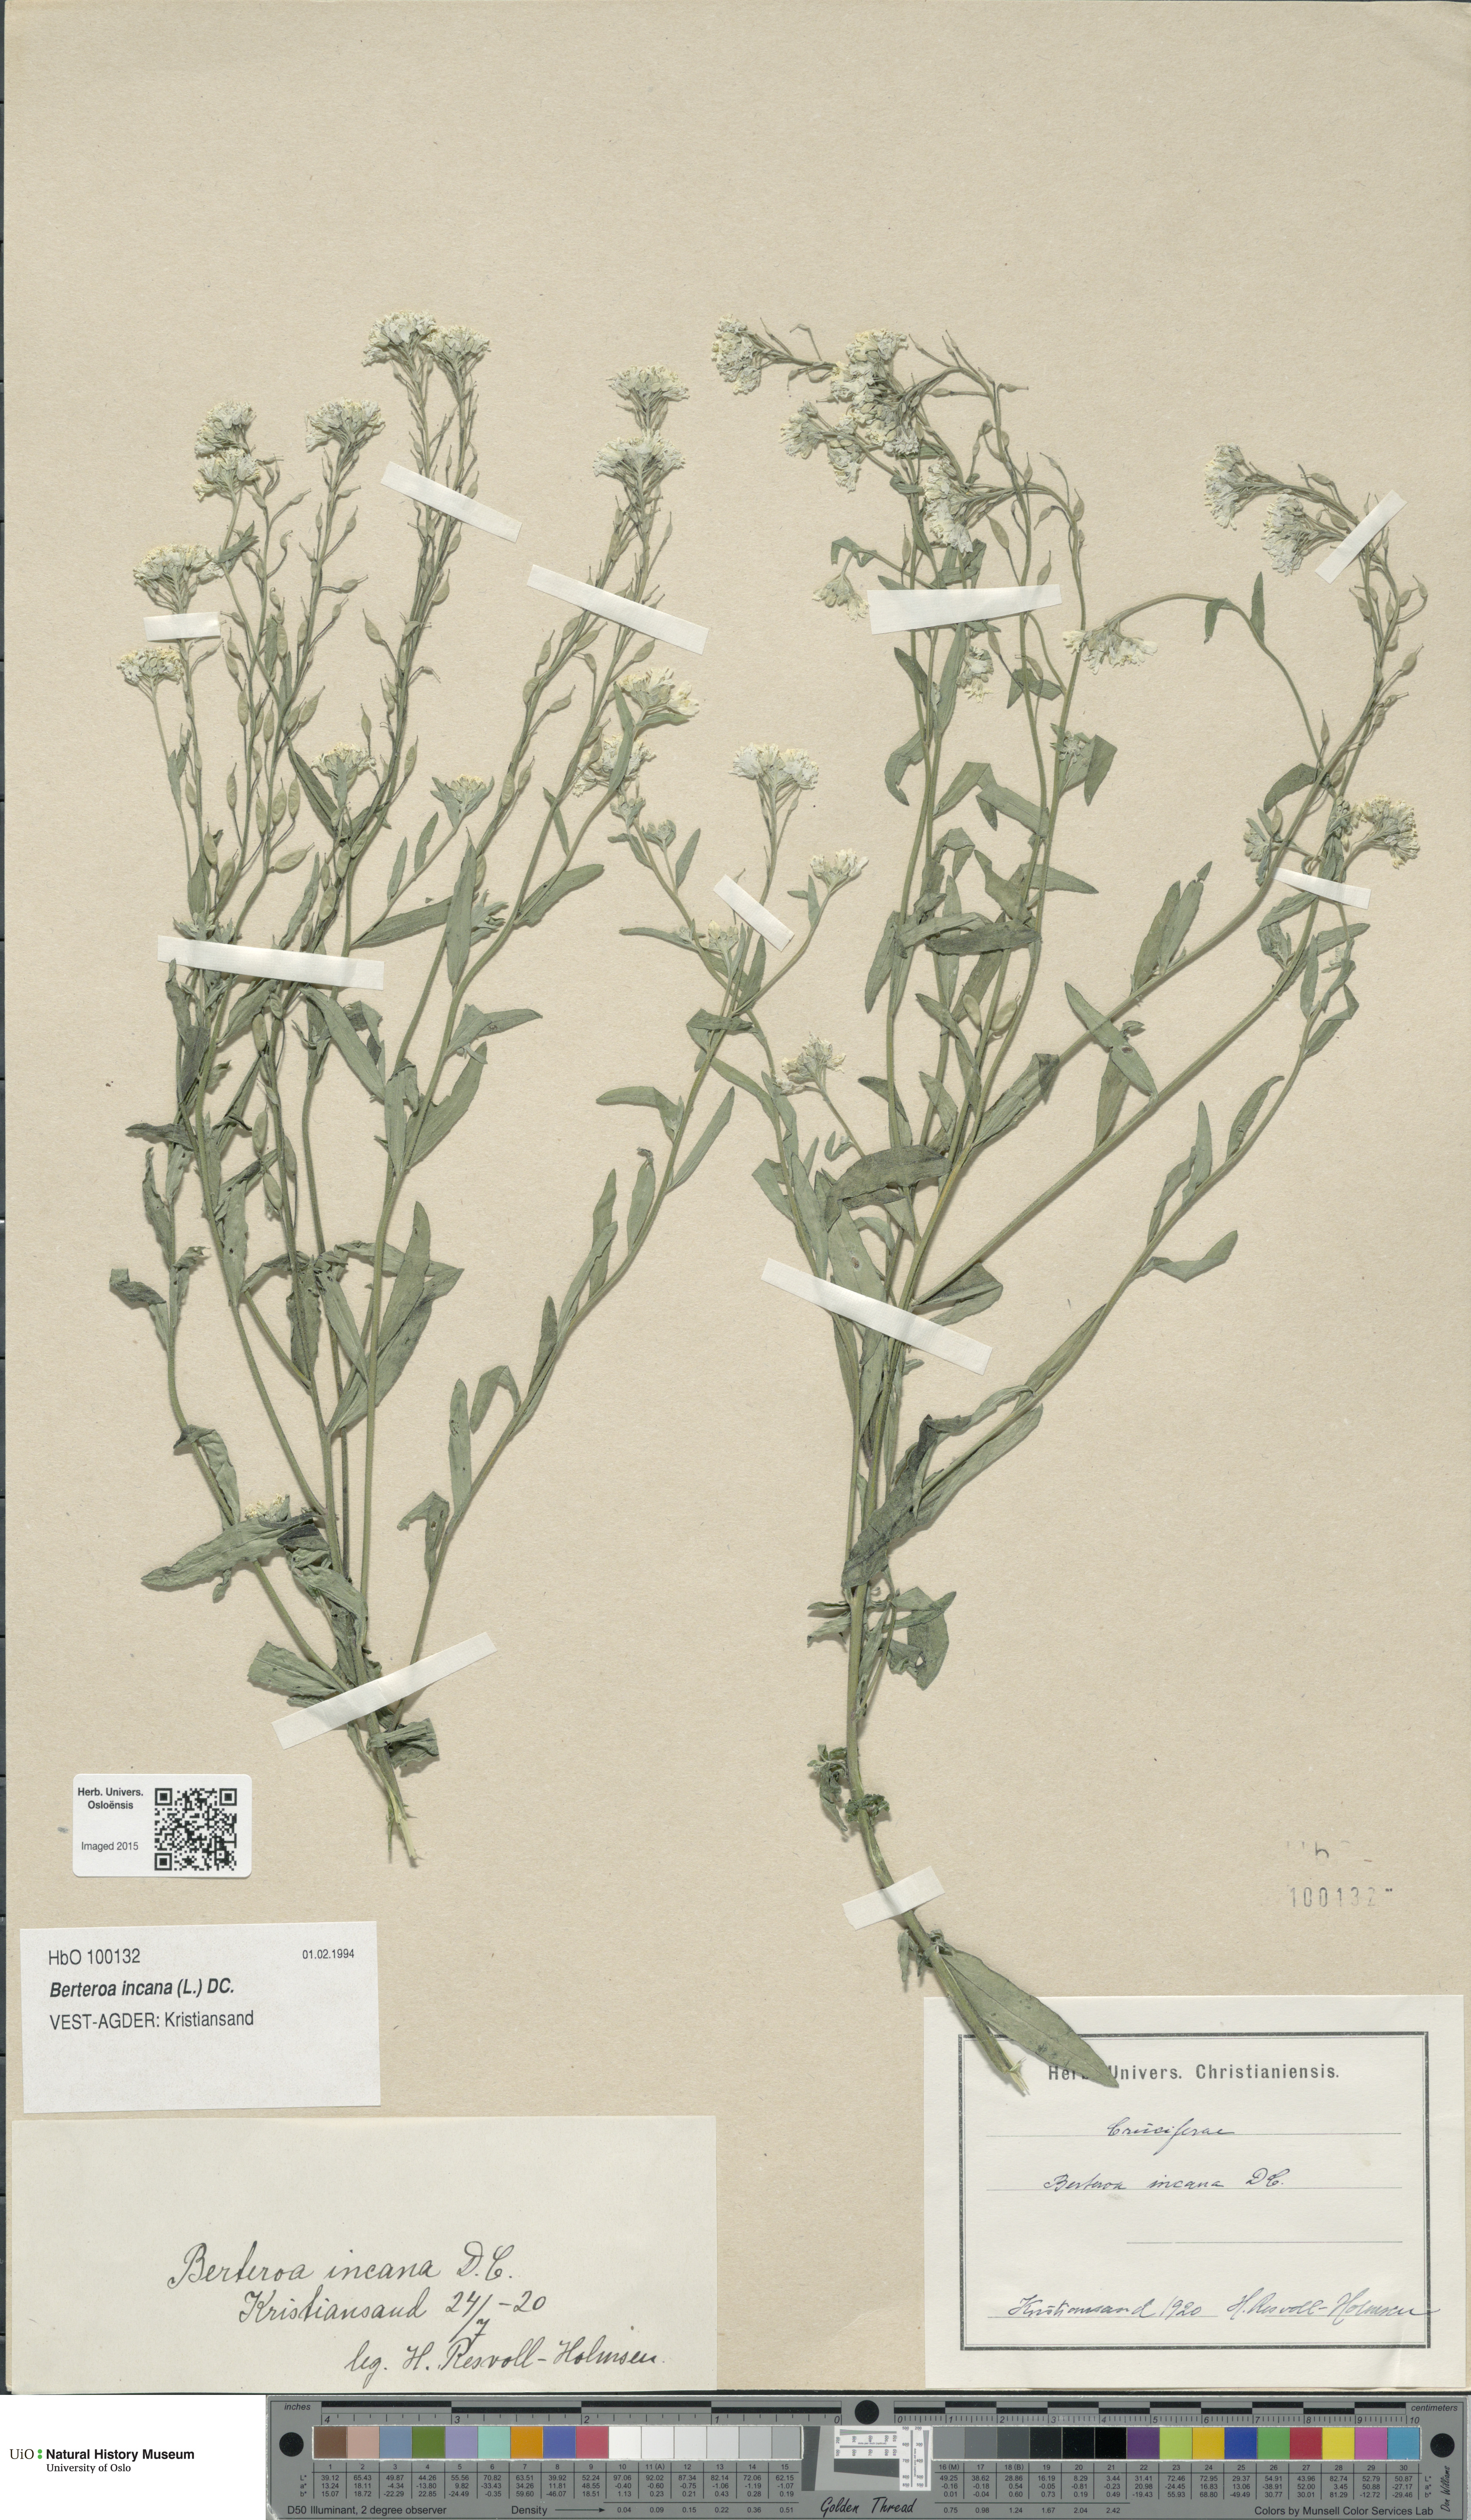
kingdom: Plantae
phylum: Tracheophyta
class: Magnoliopsida
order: Brassicales
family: Brassicaceae
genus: Berteroa
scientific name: Berteroa incana
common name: Hoary alison
